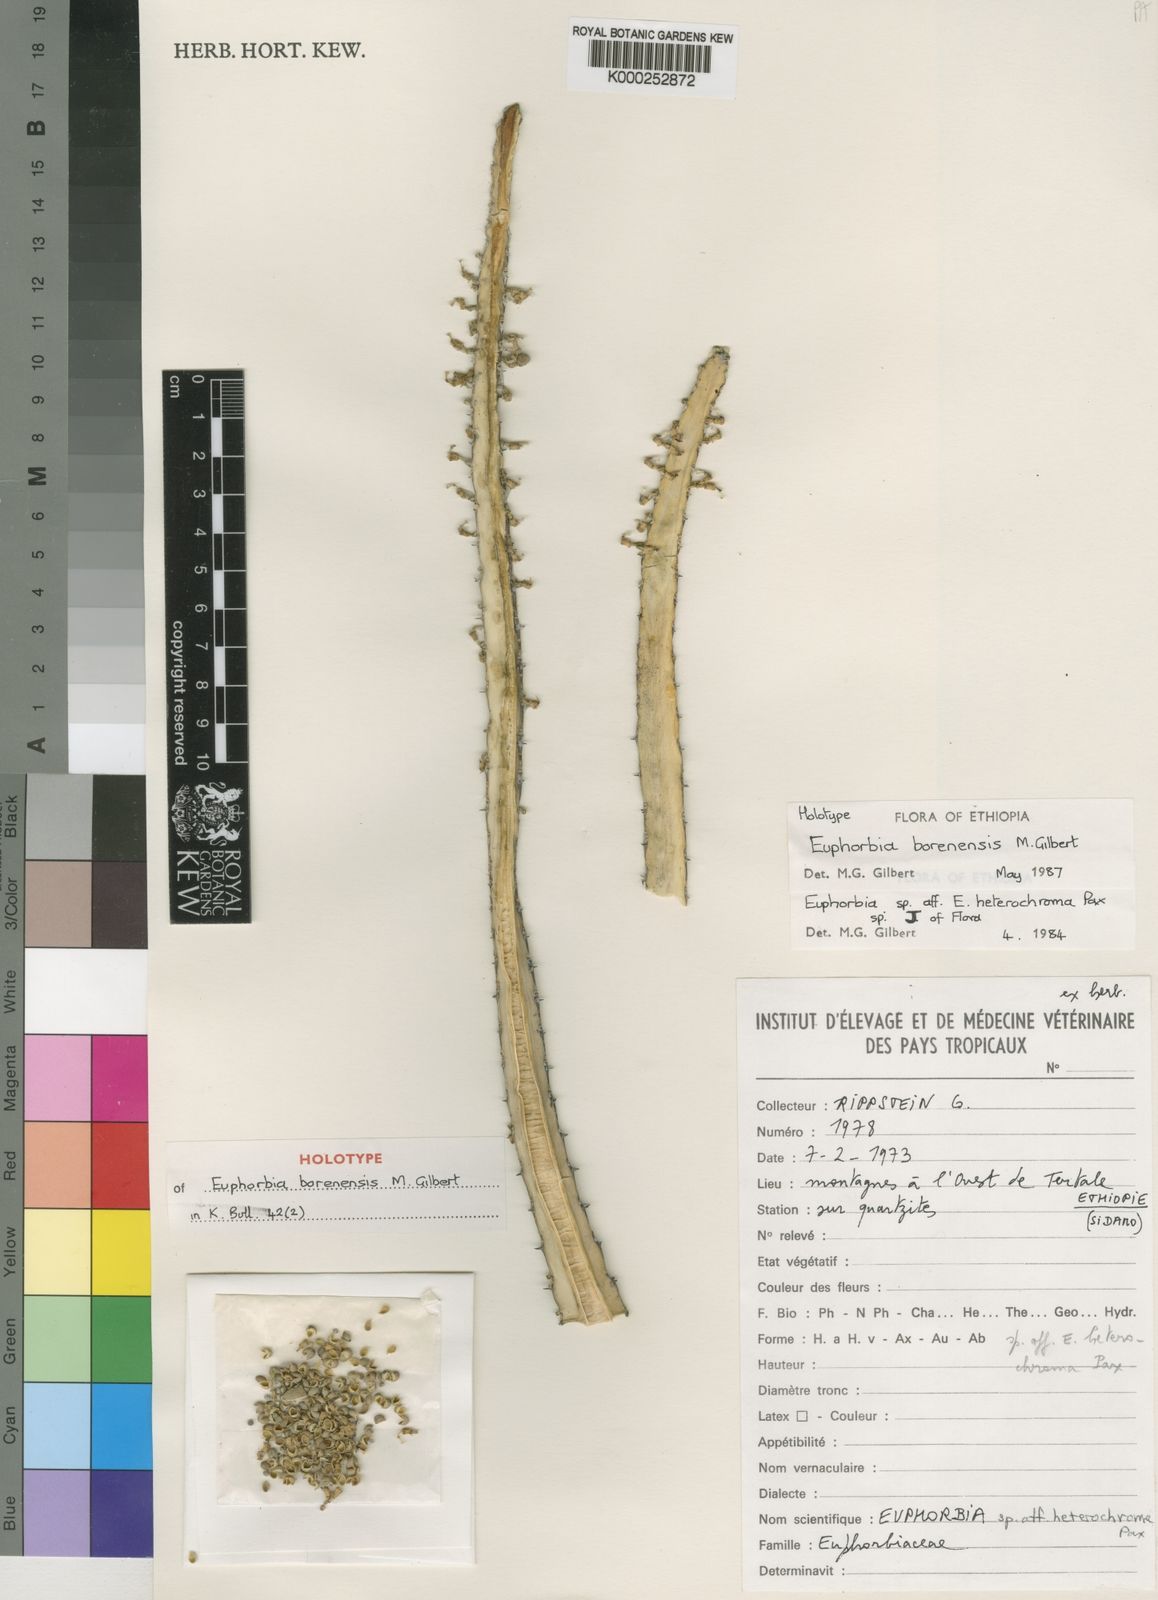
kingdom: Plantae
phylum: Tracheophyta
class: Magnoliopsida
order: Malpighiales
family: Euphorbiaceae
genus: Euphorbia
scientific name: Euphorbia borenensis
